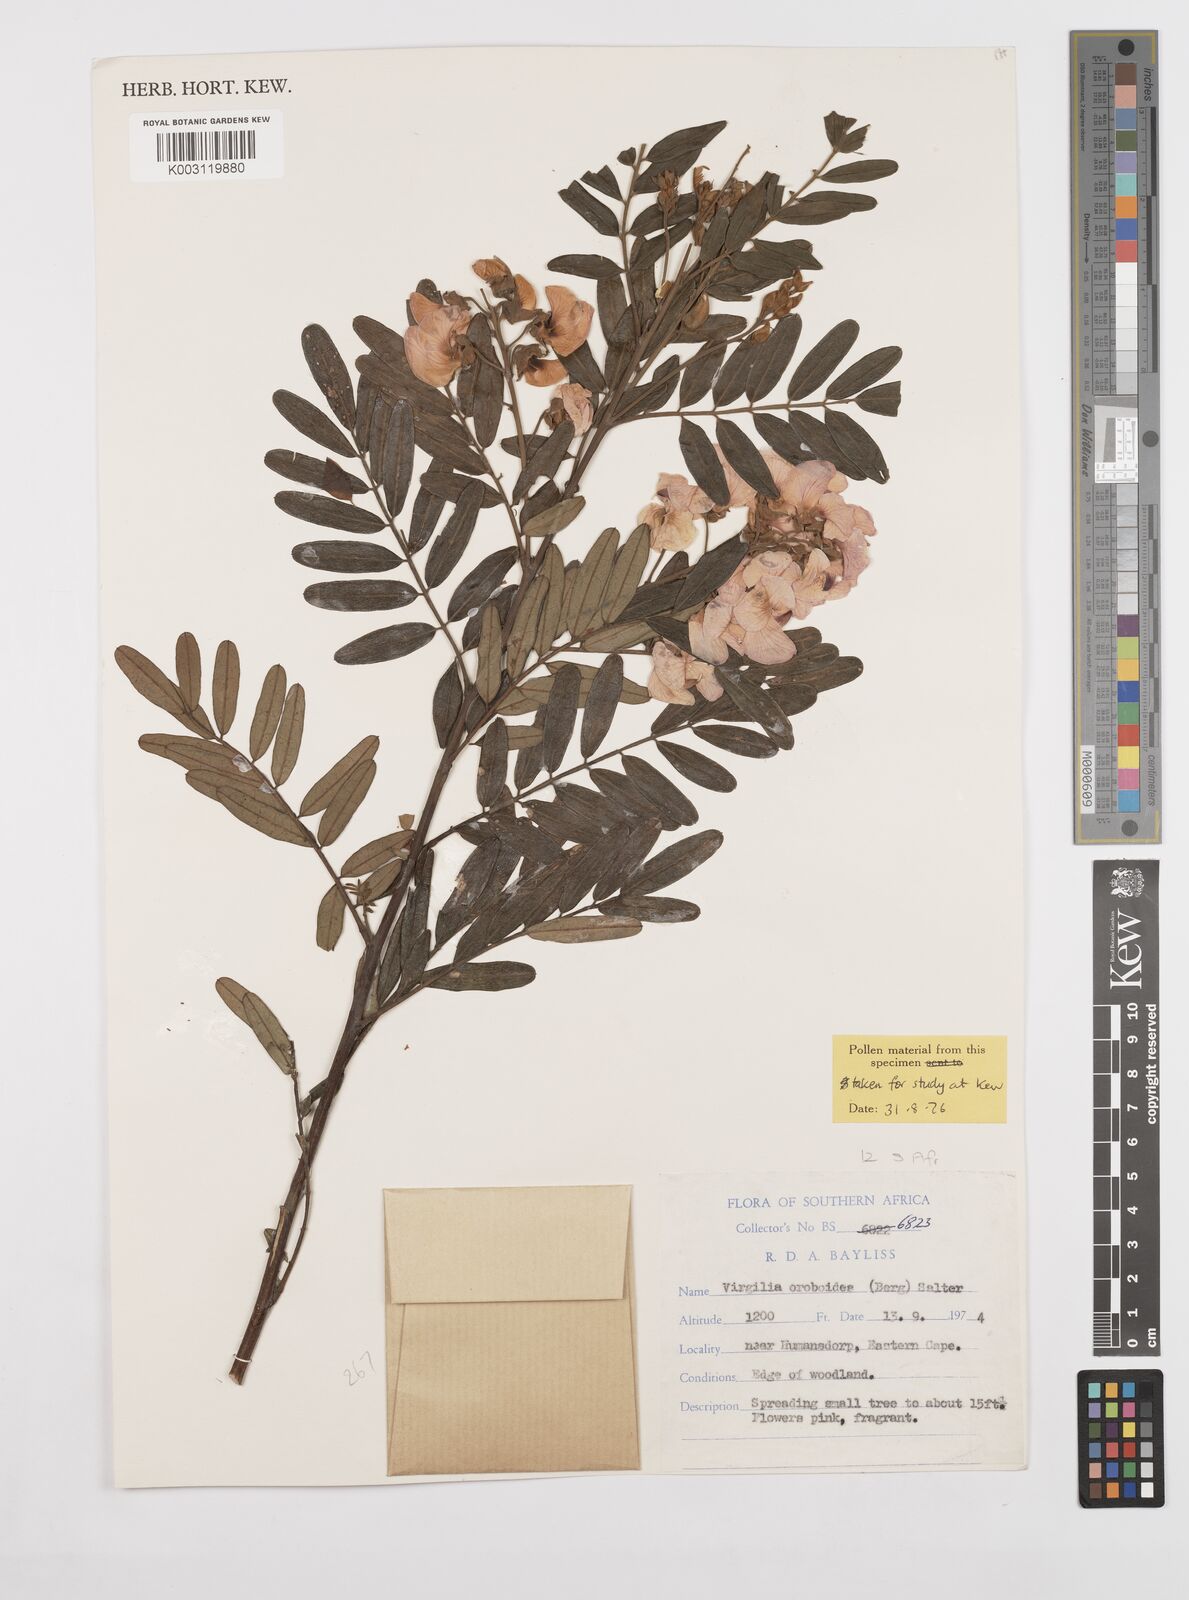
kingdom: Plantae
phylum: Tracheophyta
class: Magnoliopsida
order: Fabales
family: Fabaceae
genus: Virgilia
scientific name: Virgilia oroboides
